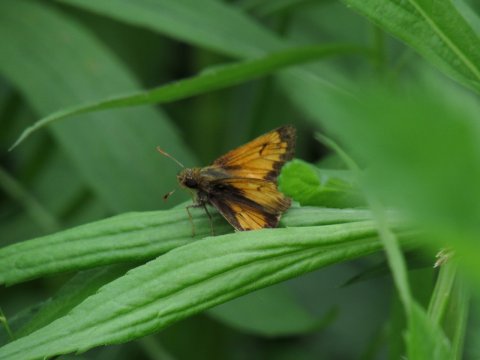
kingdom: Animalia
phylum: Arthropoda
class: Insecta
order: Lepidoptera
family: Hesperiidae
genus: Lon
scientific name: Lon hobomok
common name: Hobomok Skipper
